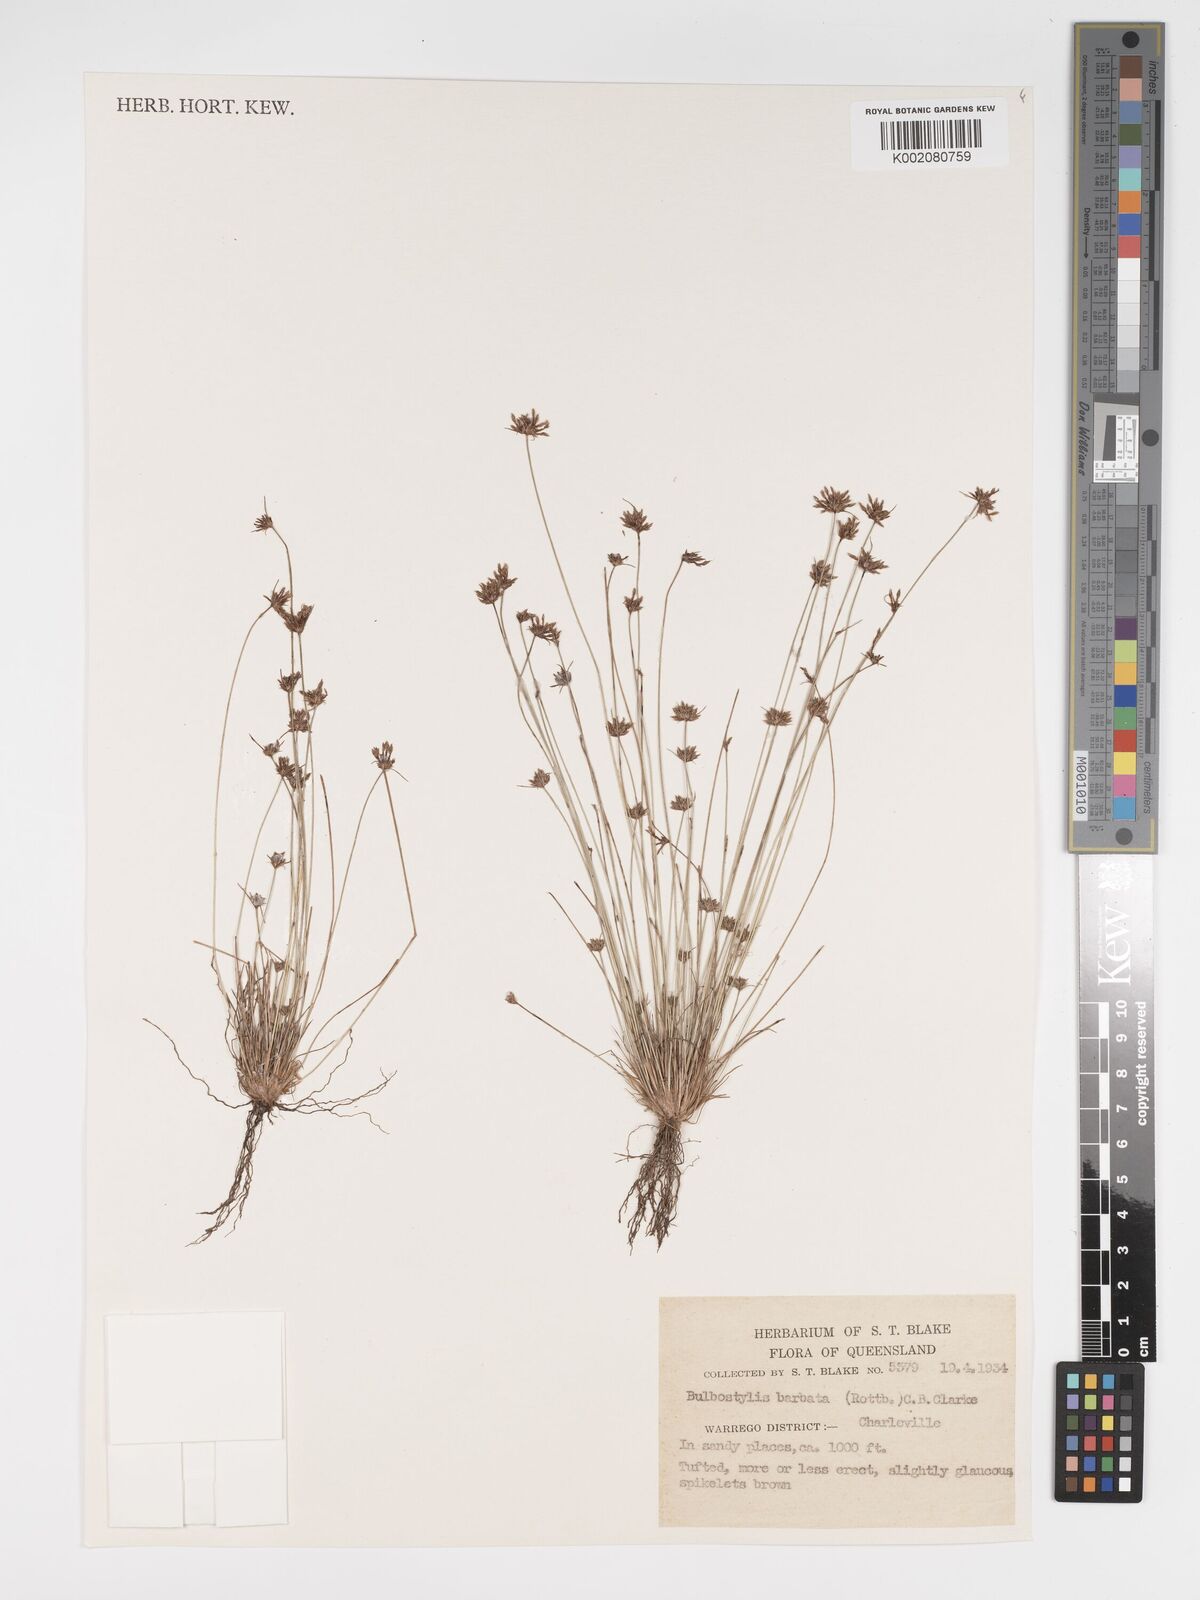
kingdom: Plantae
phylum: Tracheophyta
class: Liliopsida
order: Poales
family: Cyperaceae
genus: Bulbostylis
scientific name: Bulbostylis barbata
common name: Watergrass
